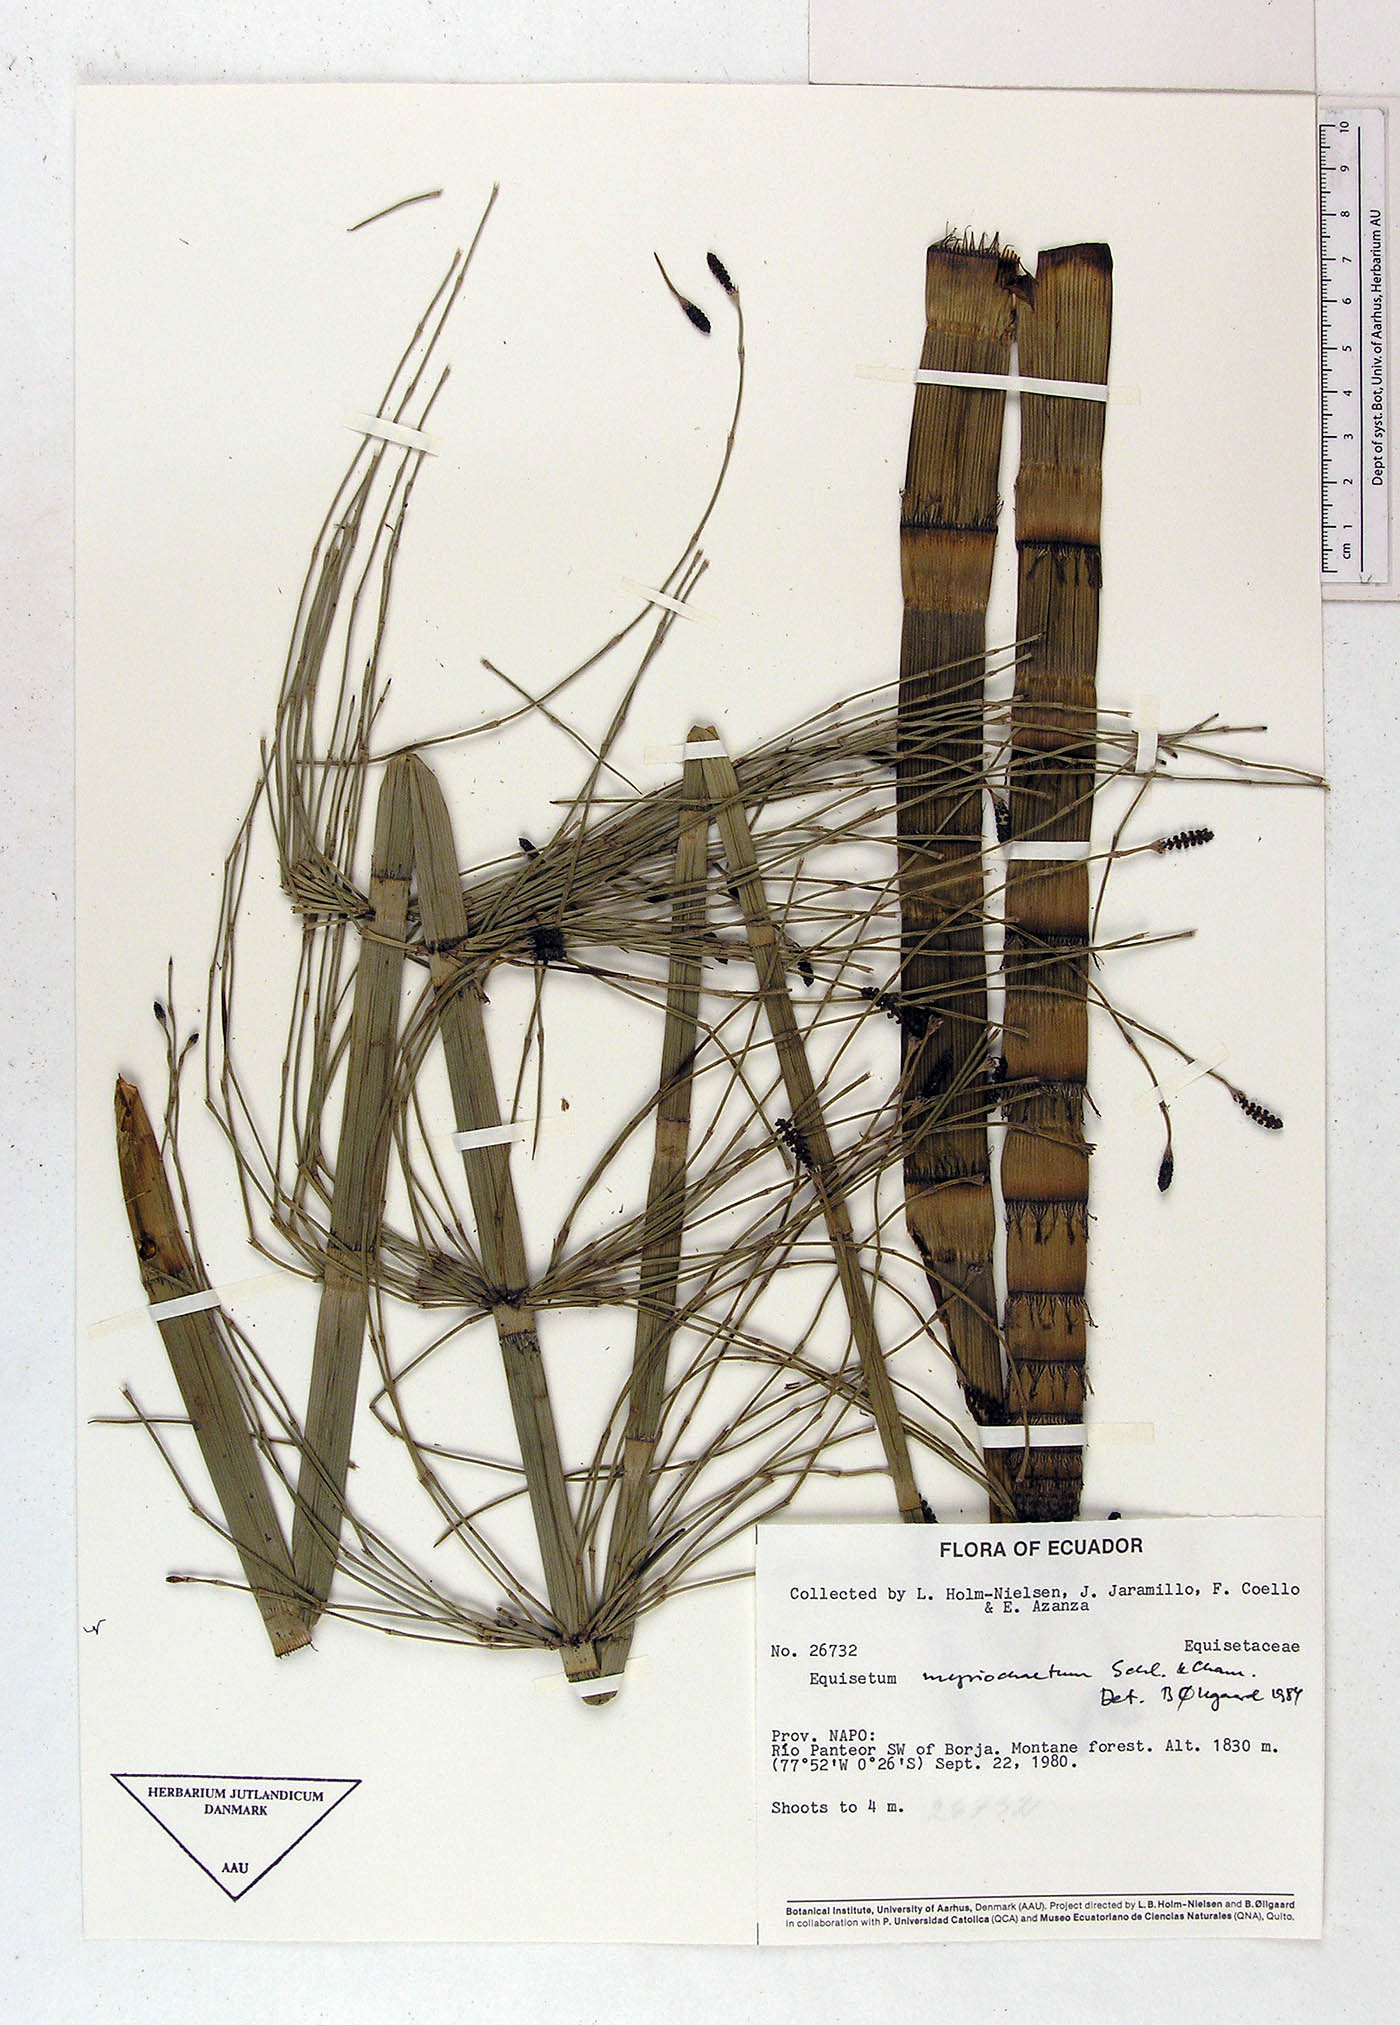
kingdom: Plantae
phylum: Tracheophyta
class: Polypodiopsida
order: Equisetales
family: Equisetaceae
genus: Equisetum
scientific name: Equisetum myriochaetum
